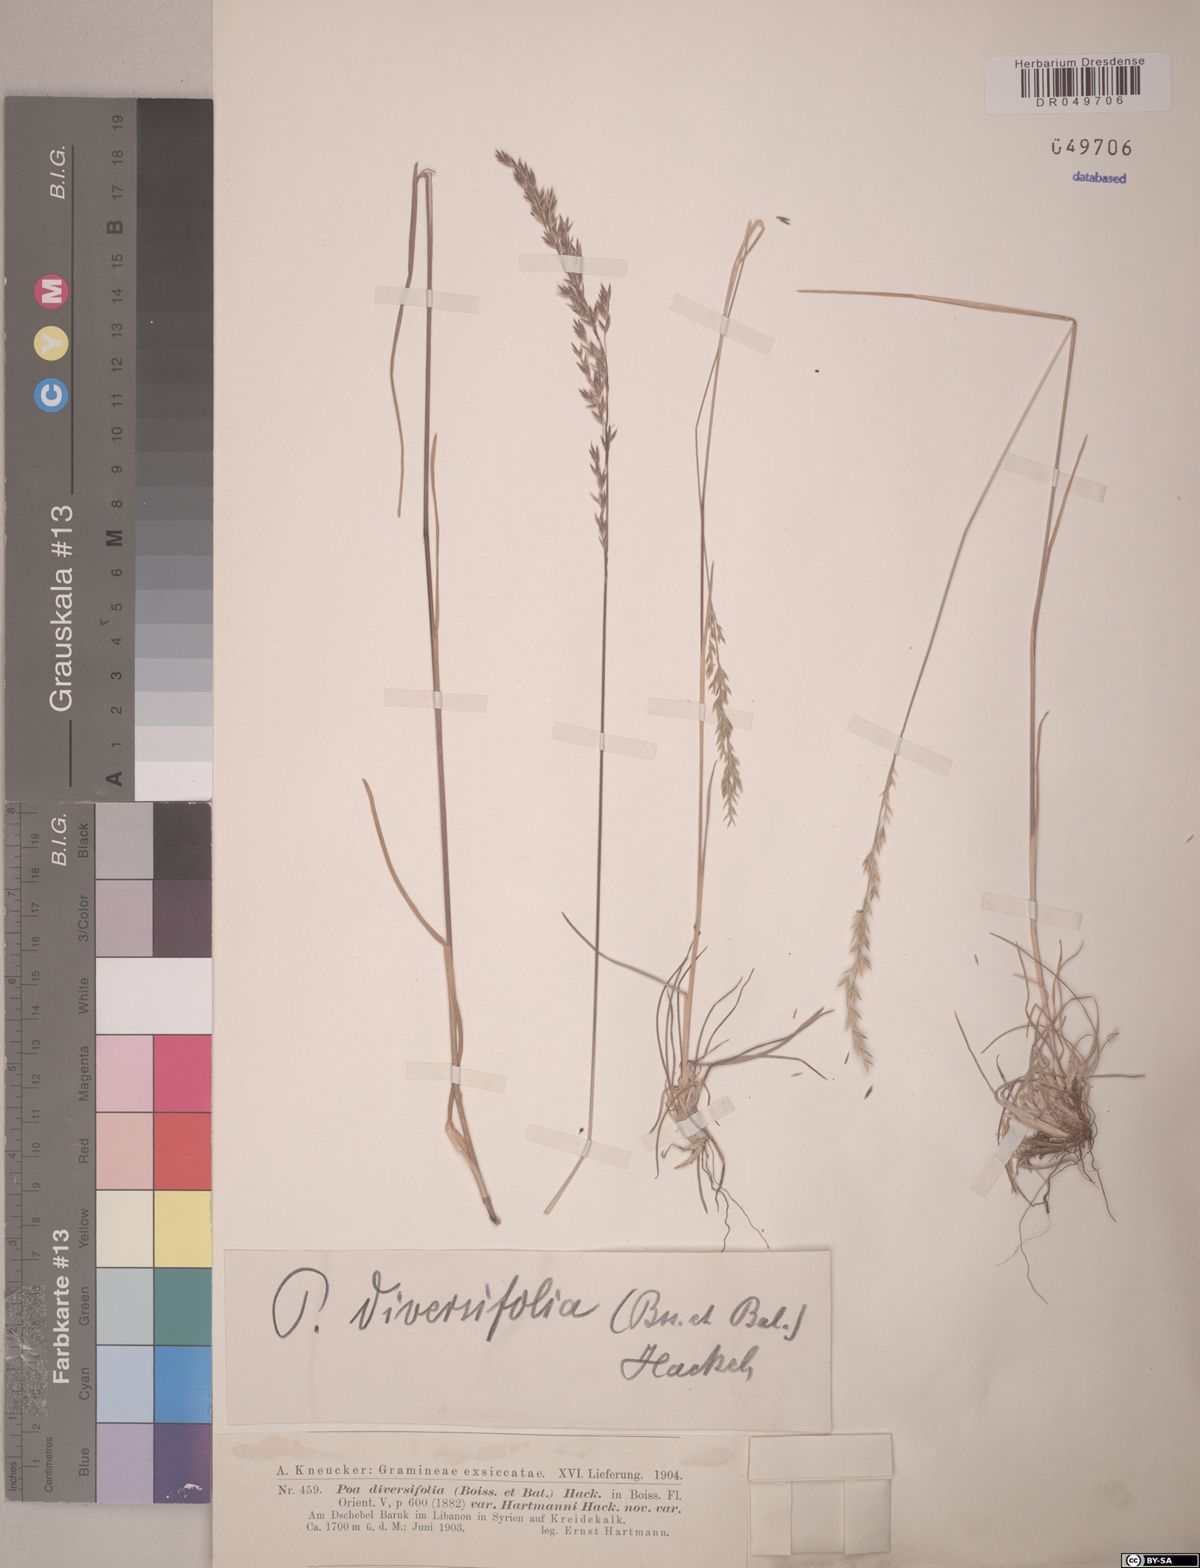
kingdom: Plantae
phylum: Tracheophyta
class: Liliopsida
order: Poales
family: Poaceae
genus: Poa
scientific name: Poa diversifolia
